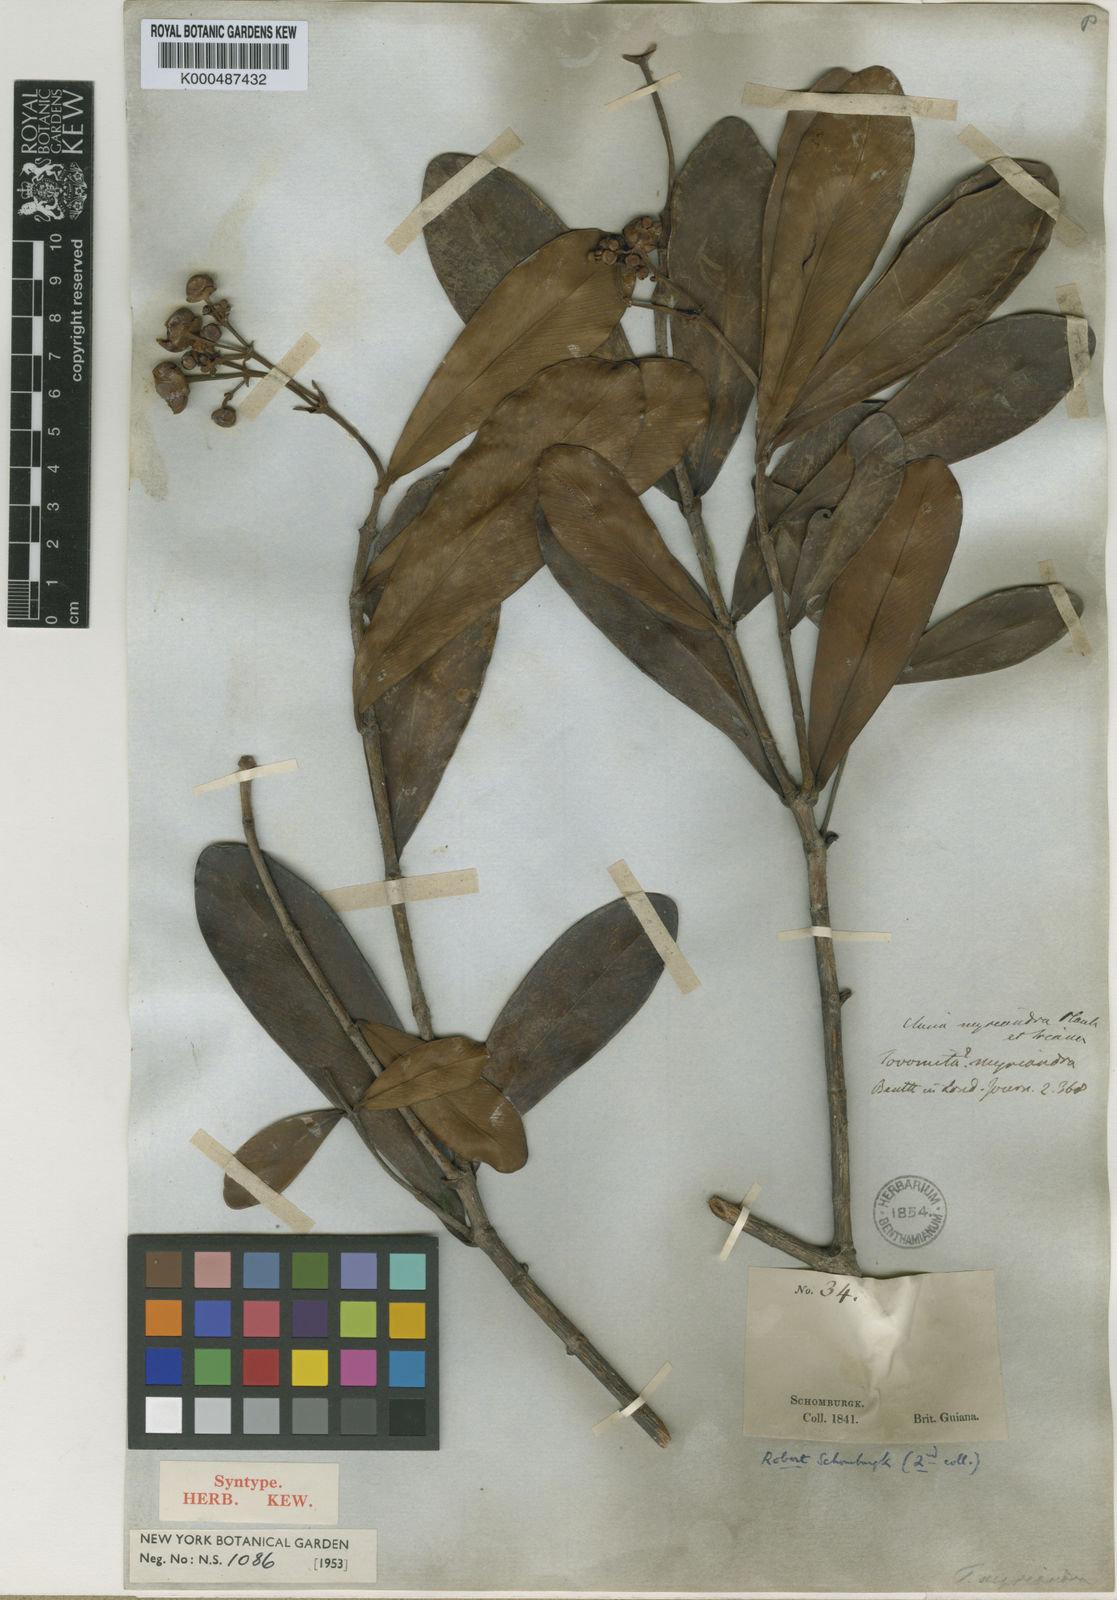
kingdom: Plantae
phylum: Tracheophyta
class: Magnoliopsida
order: Malpighiales
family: Clusiaceae
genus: Clusia
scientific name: Clusia myriandra
